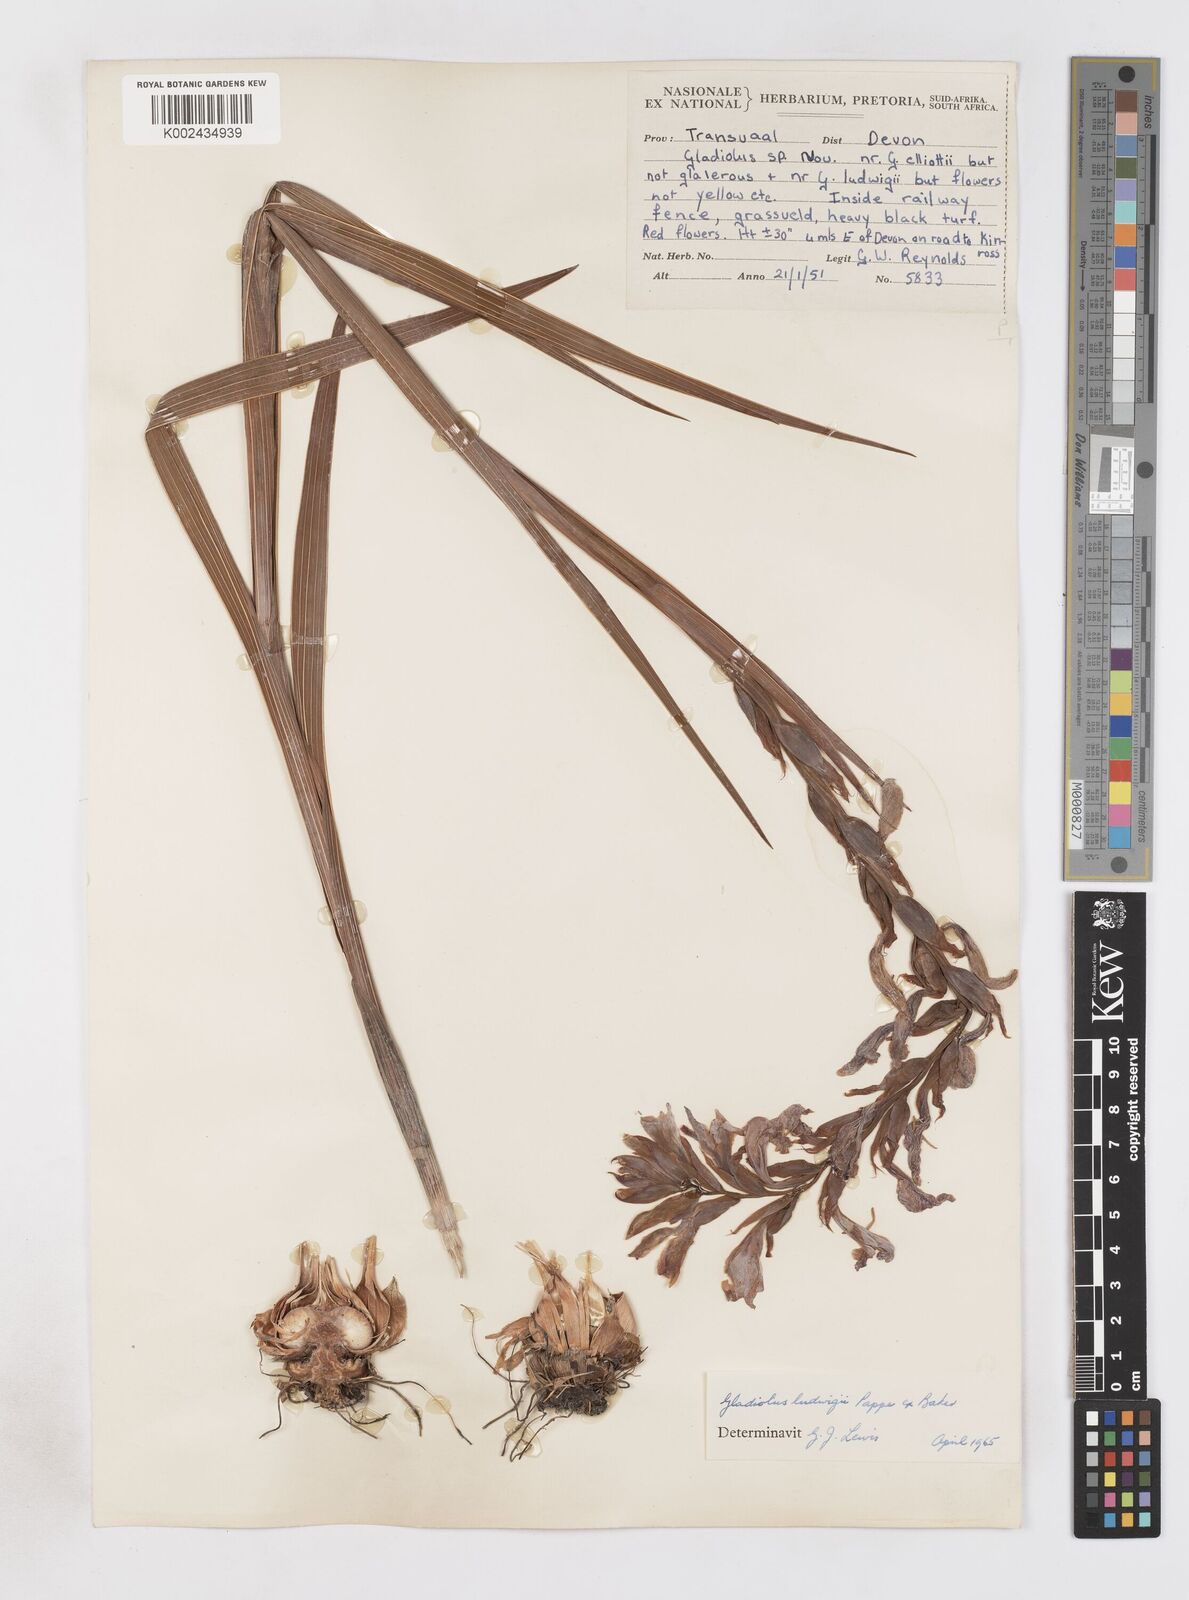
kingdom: Plantae
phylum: Tracheophyta
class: Liliopsida
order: Asparagales
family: Iridaceae
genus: Gladiolus
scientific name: Gladiolus sericeovillosus
